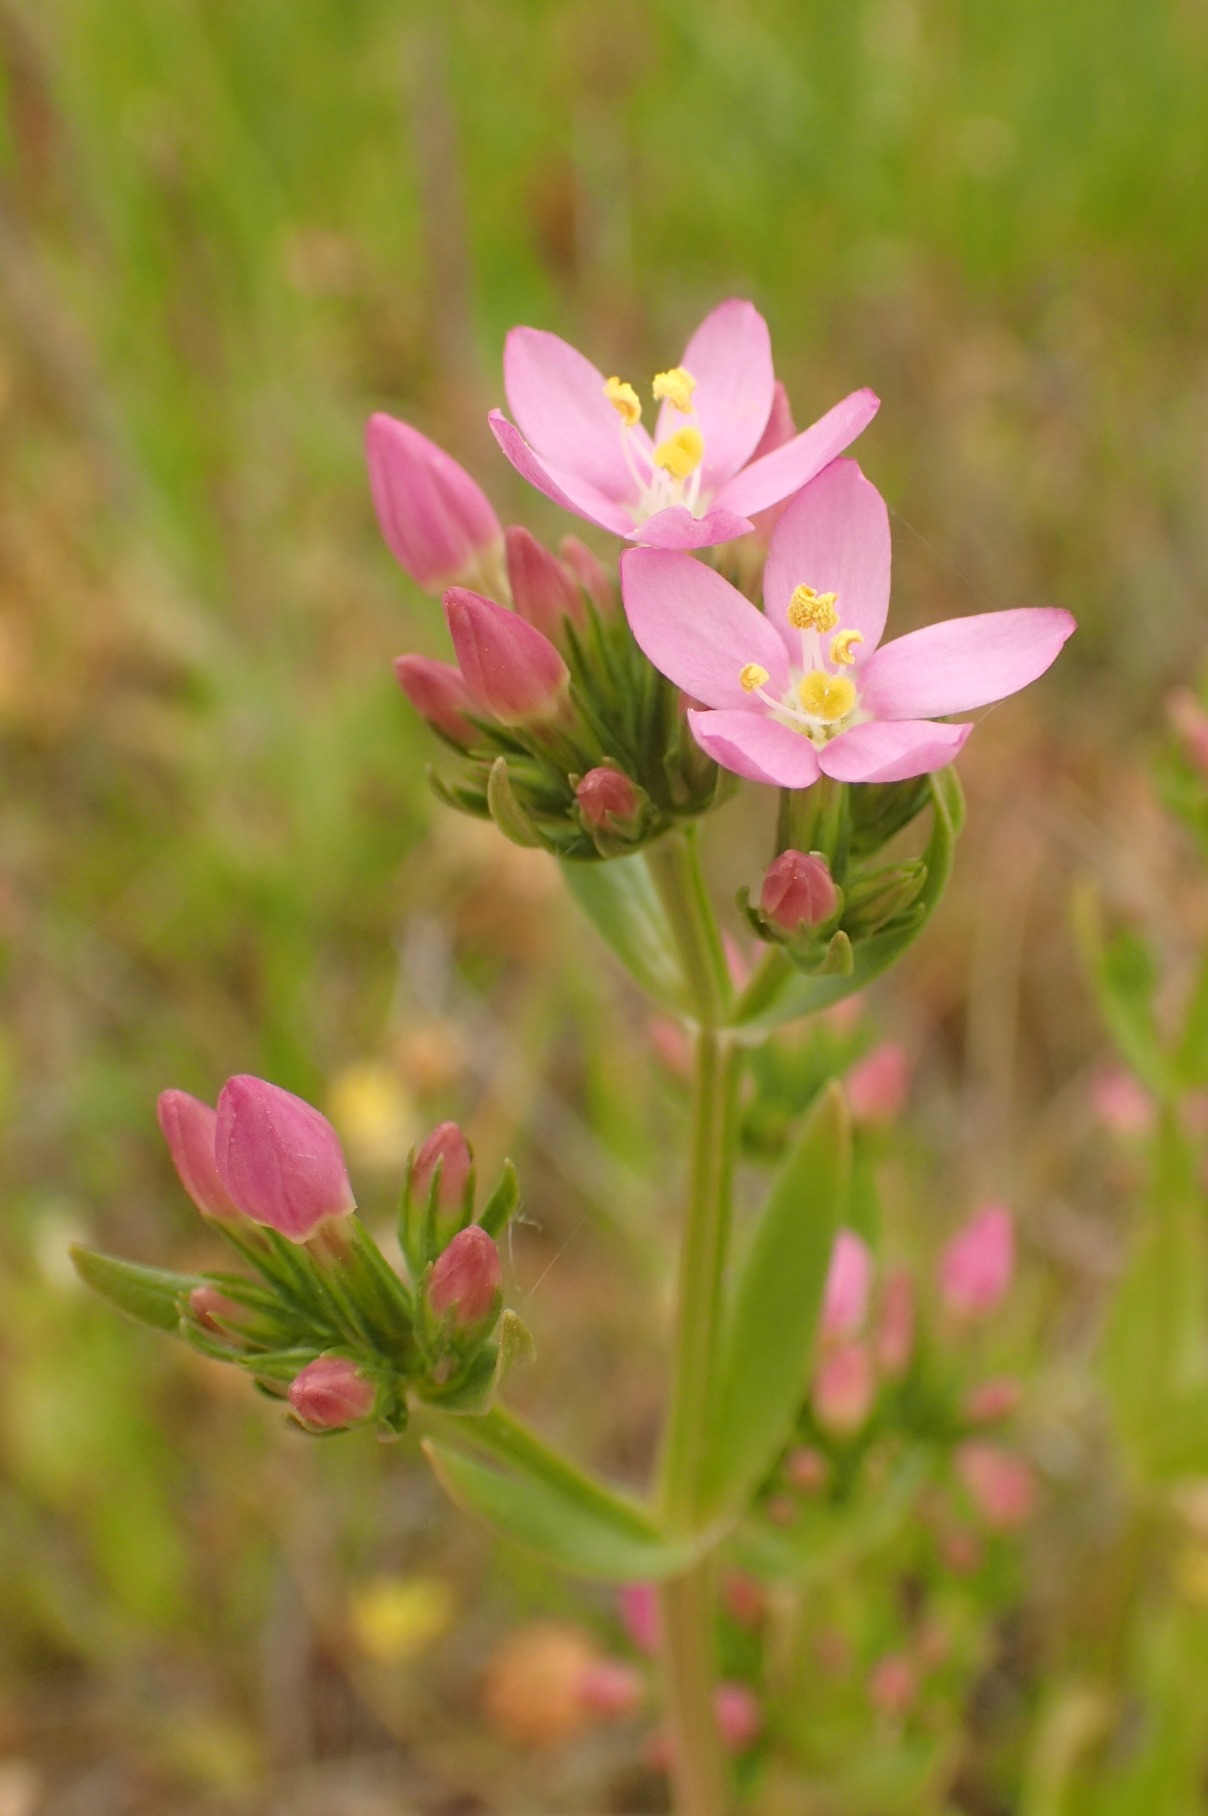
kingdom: Plantae
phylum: Tracheophyta
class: Magnoliopsida
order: Gentianales
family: Gentianaceae
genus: Centaurium
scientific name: Centaurium erythraea
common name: Mark-tusindgylden
